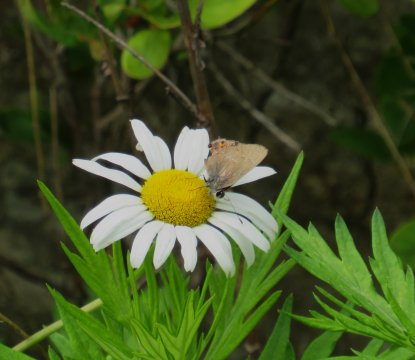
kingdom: Animalia
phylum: Arthropoda
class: Insecta
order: Lepidoptera
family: Lycaenidae
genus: Strymon
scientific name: Strymon melinus
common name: Gray Hairstreak
